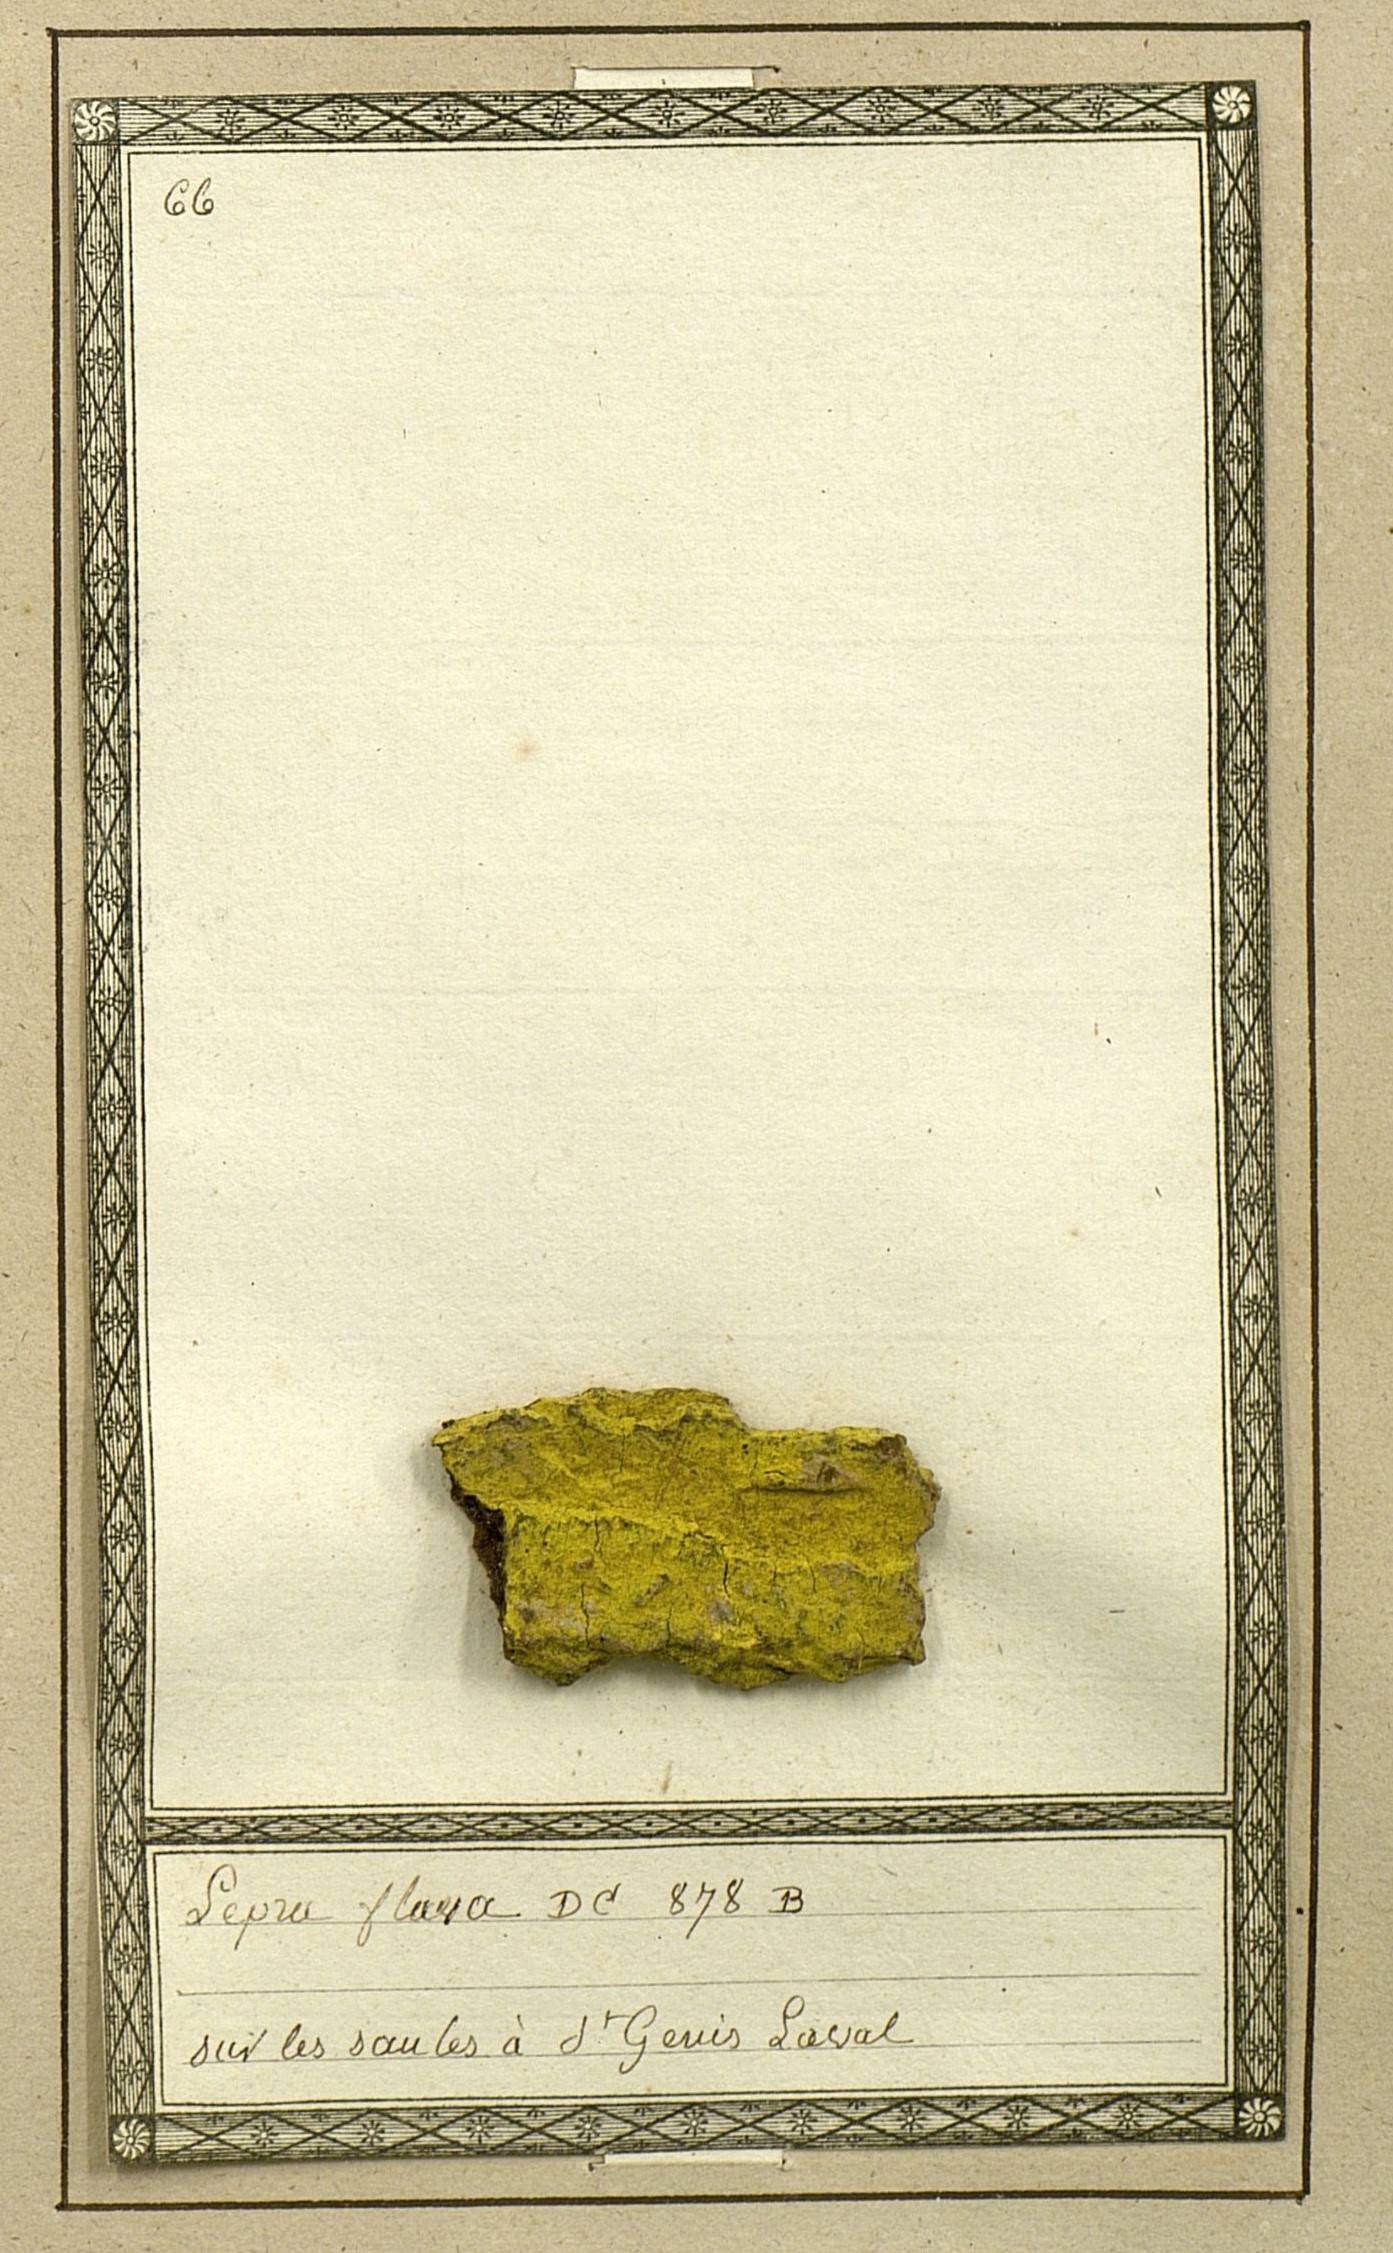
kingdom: Fungi
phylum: Ascomycota
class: Arthoniomycetes
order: Arthoniales
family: Chrysotrichaceae
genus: Chrysothrix
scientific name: Chrysothrix candelaris
